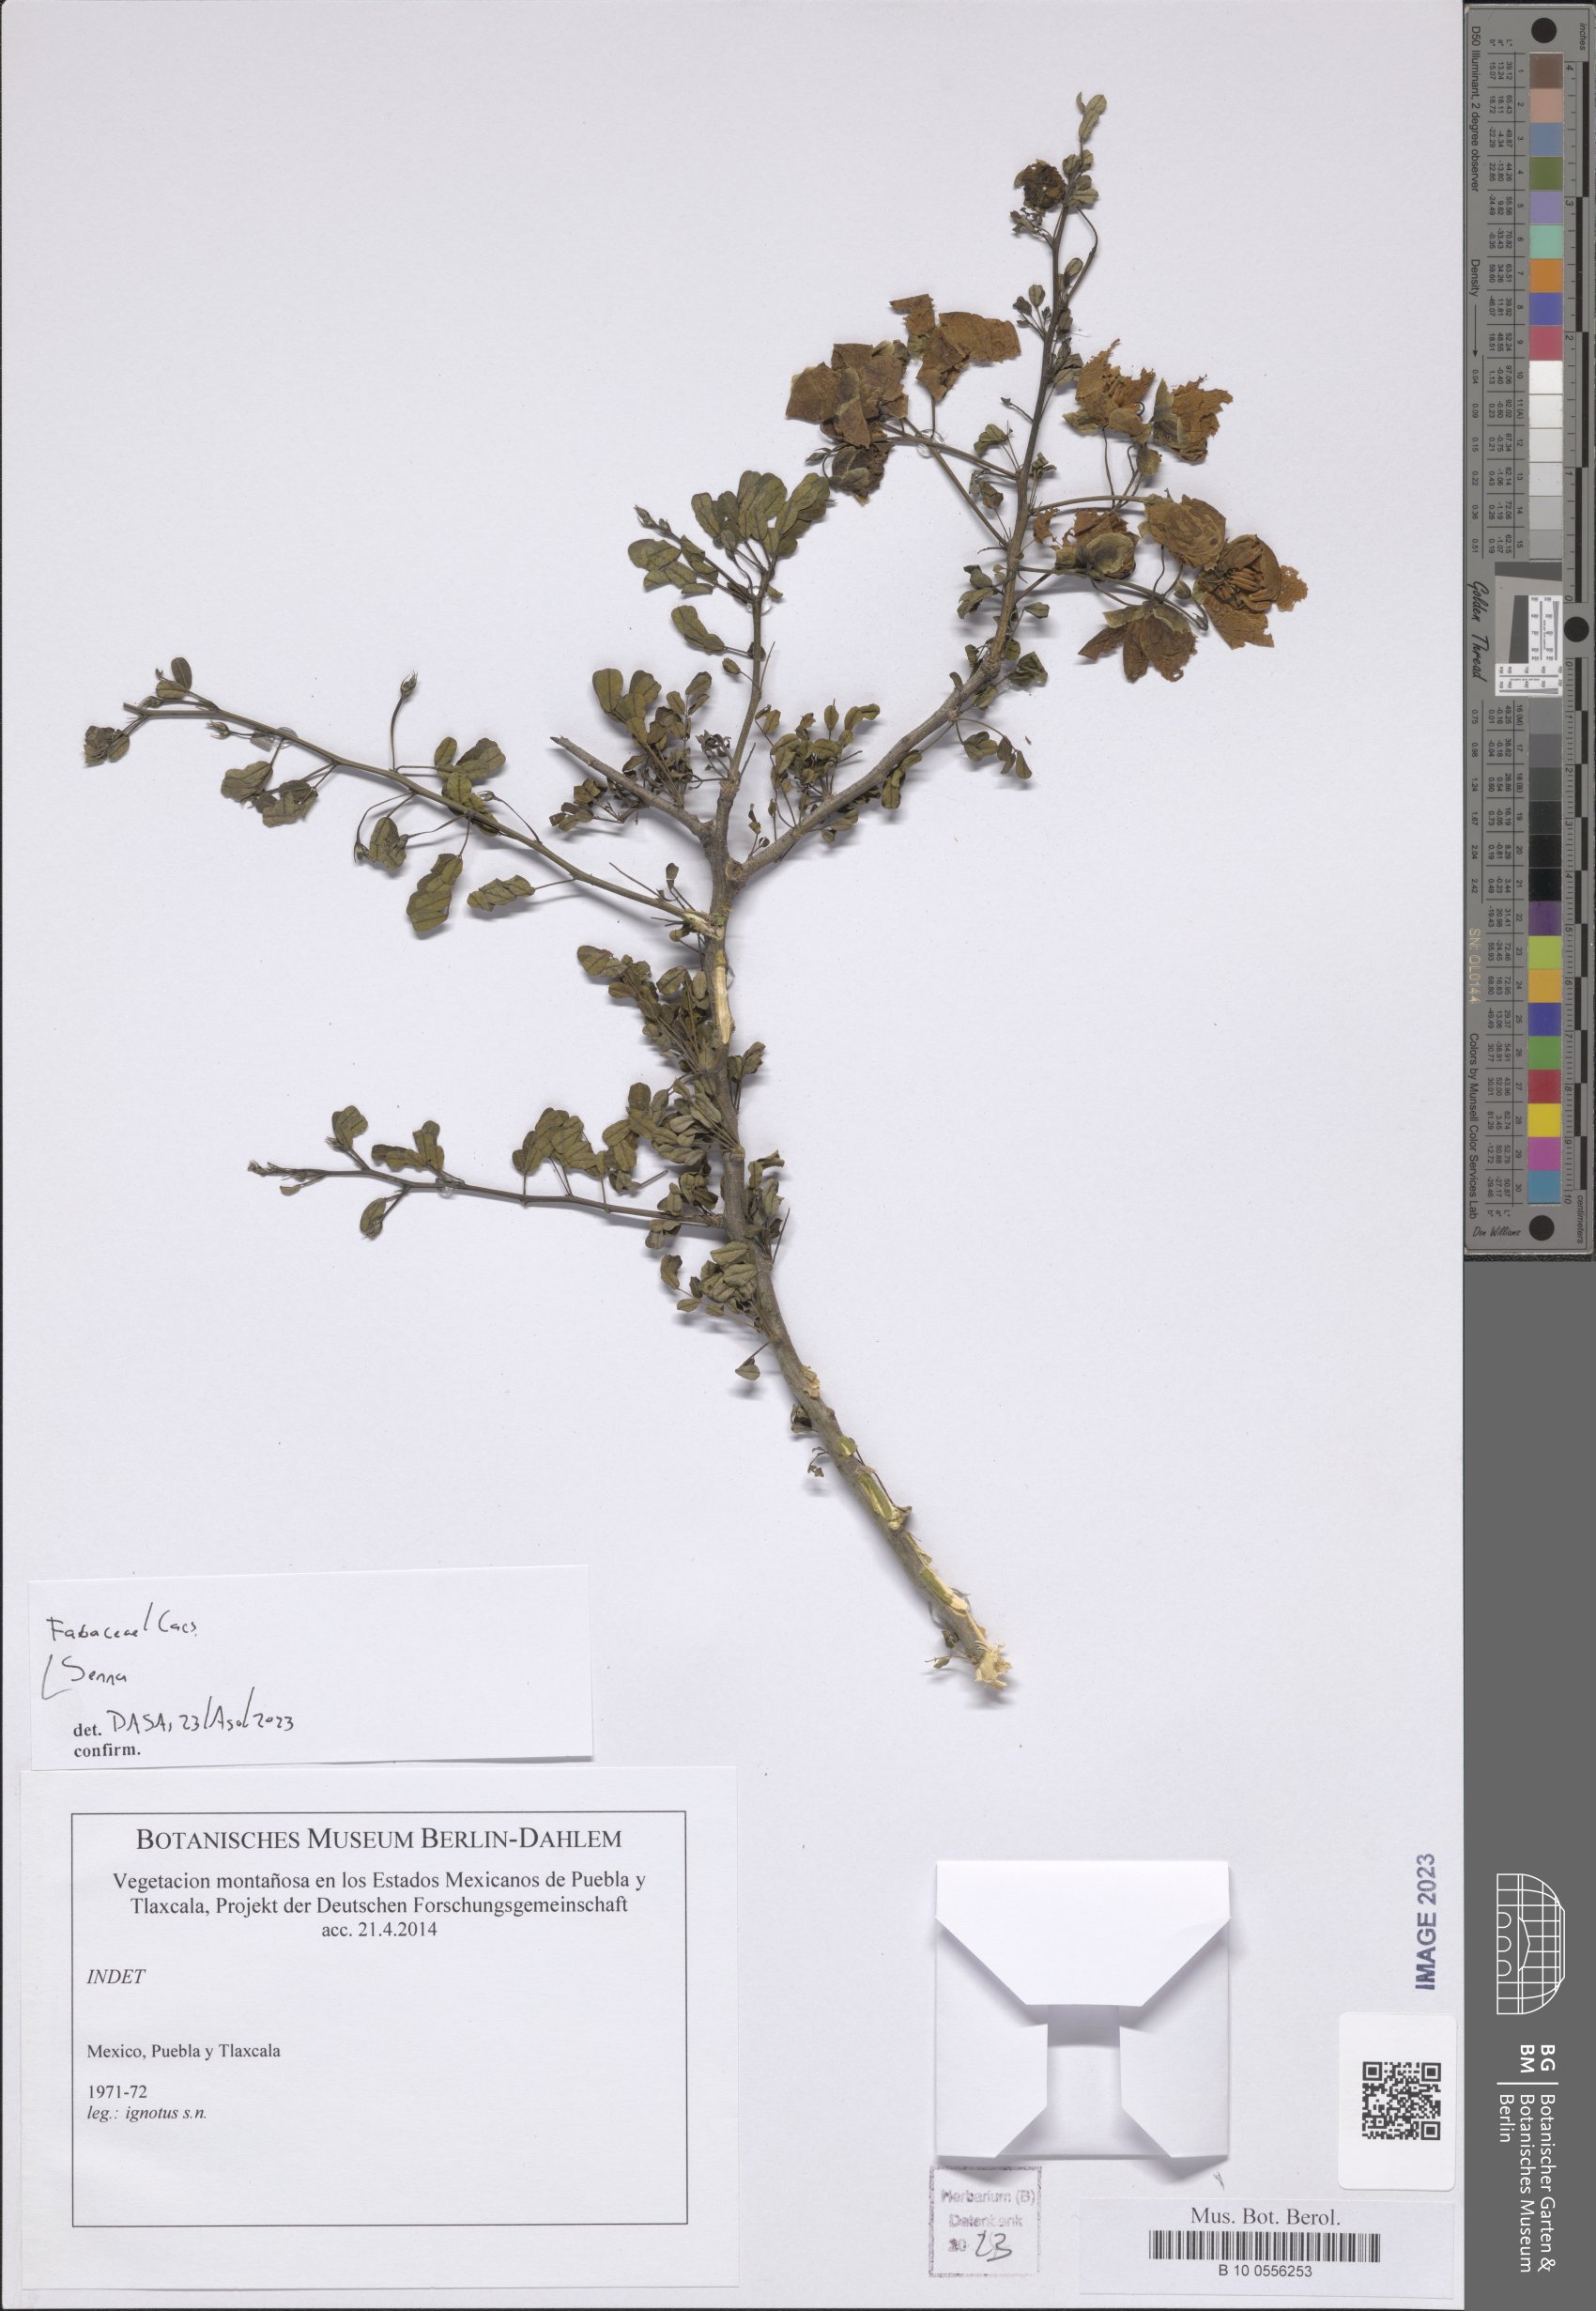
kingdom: Plantae
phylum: Tracheophyta
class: Magnoliopsida
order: Fabales
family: Fabaceae
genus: Senna
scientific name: Senna
